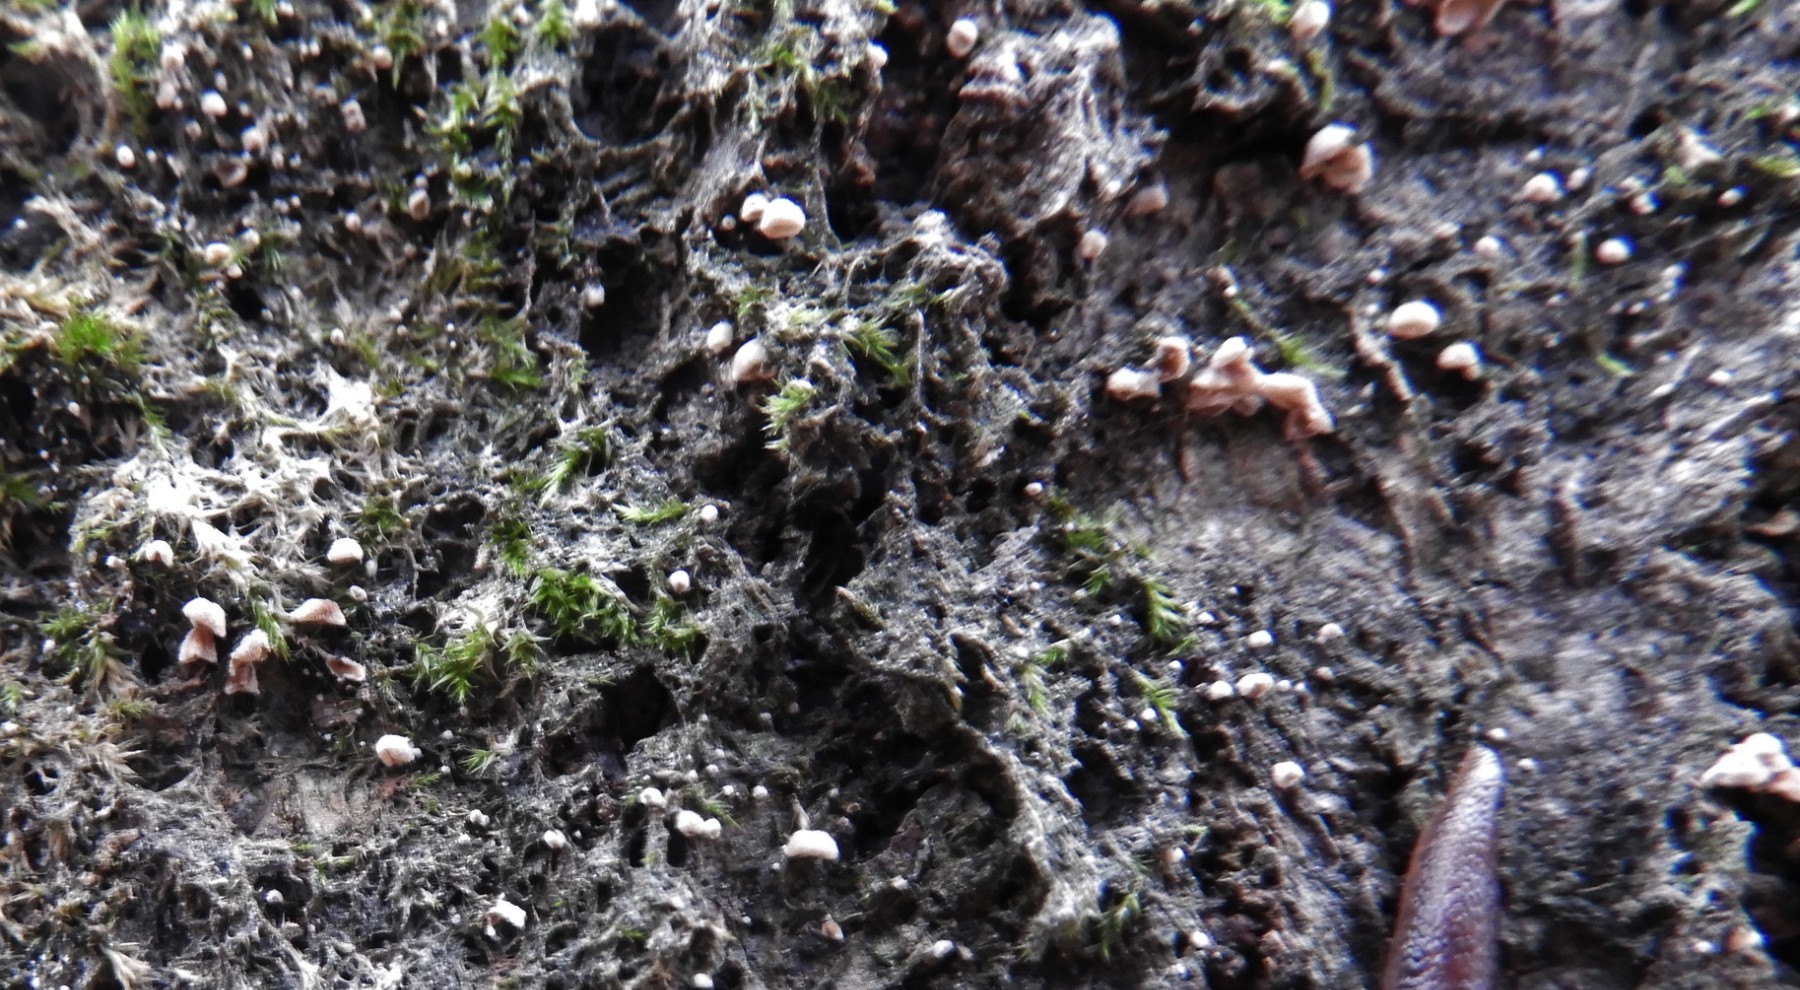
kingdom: Fungi
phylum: Basidiomycota
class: Agaricomycetes
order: Agaricales
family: Chromocyphellaceae
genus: Chromocyphella
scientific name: Chromocyphella muscicola
